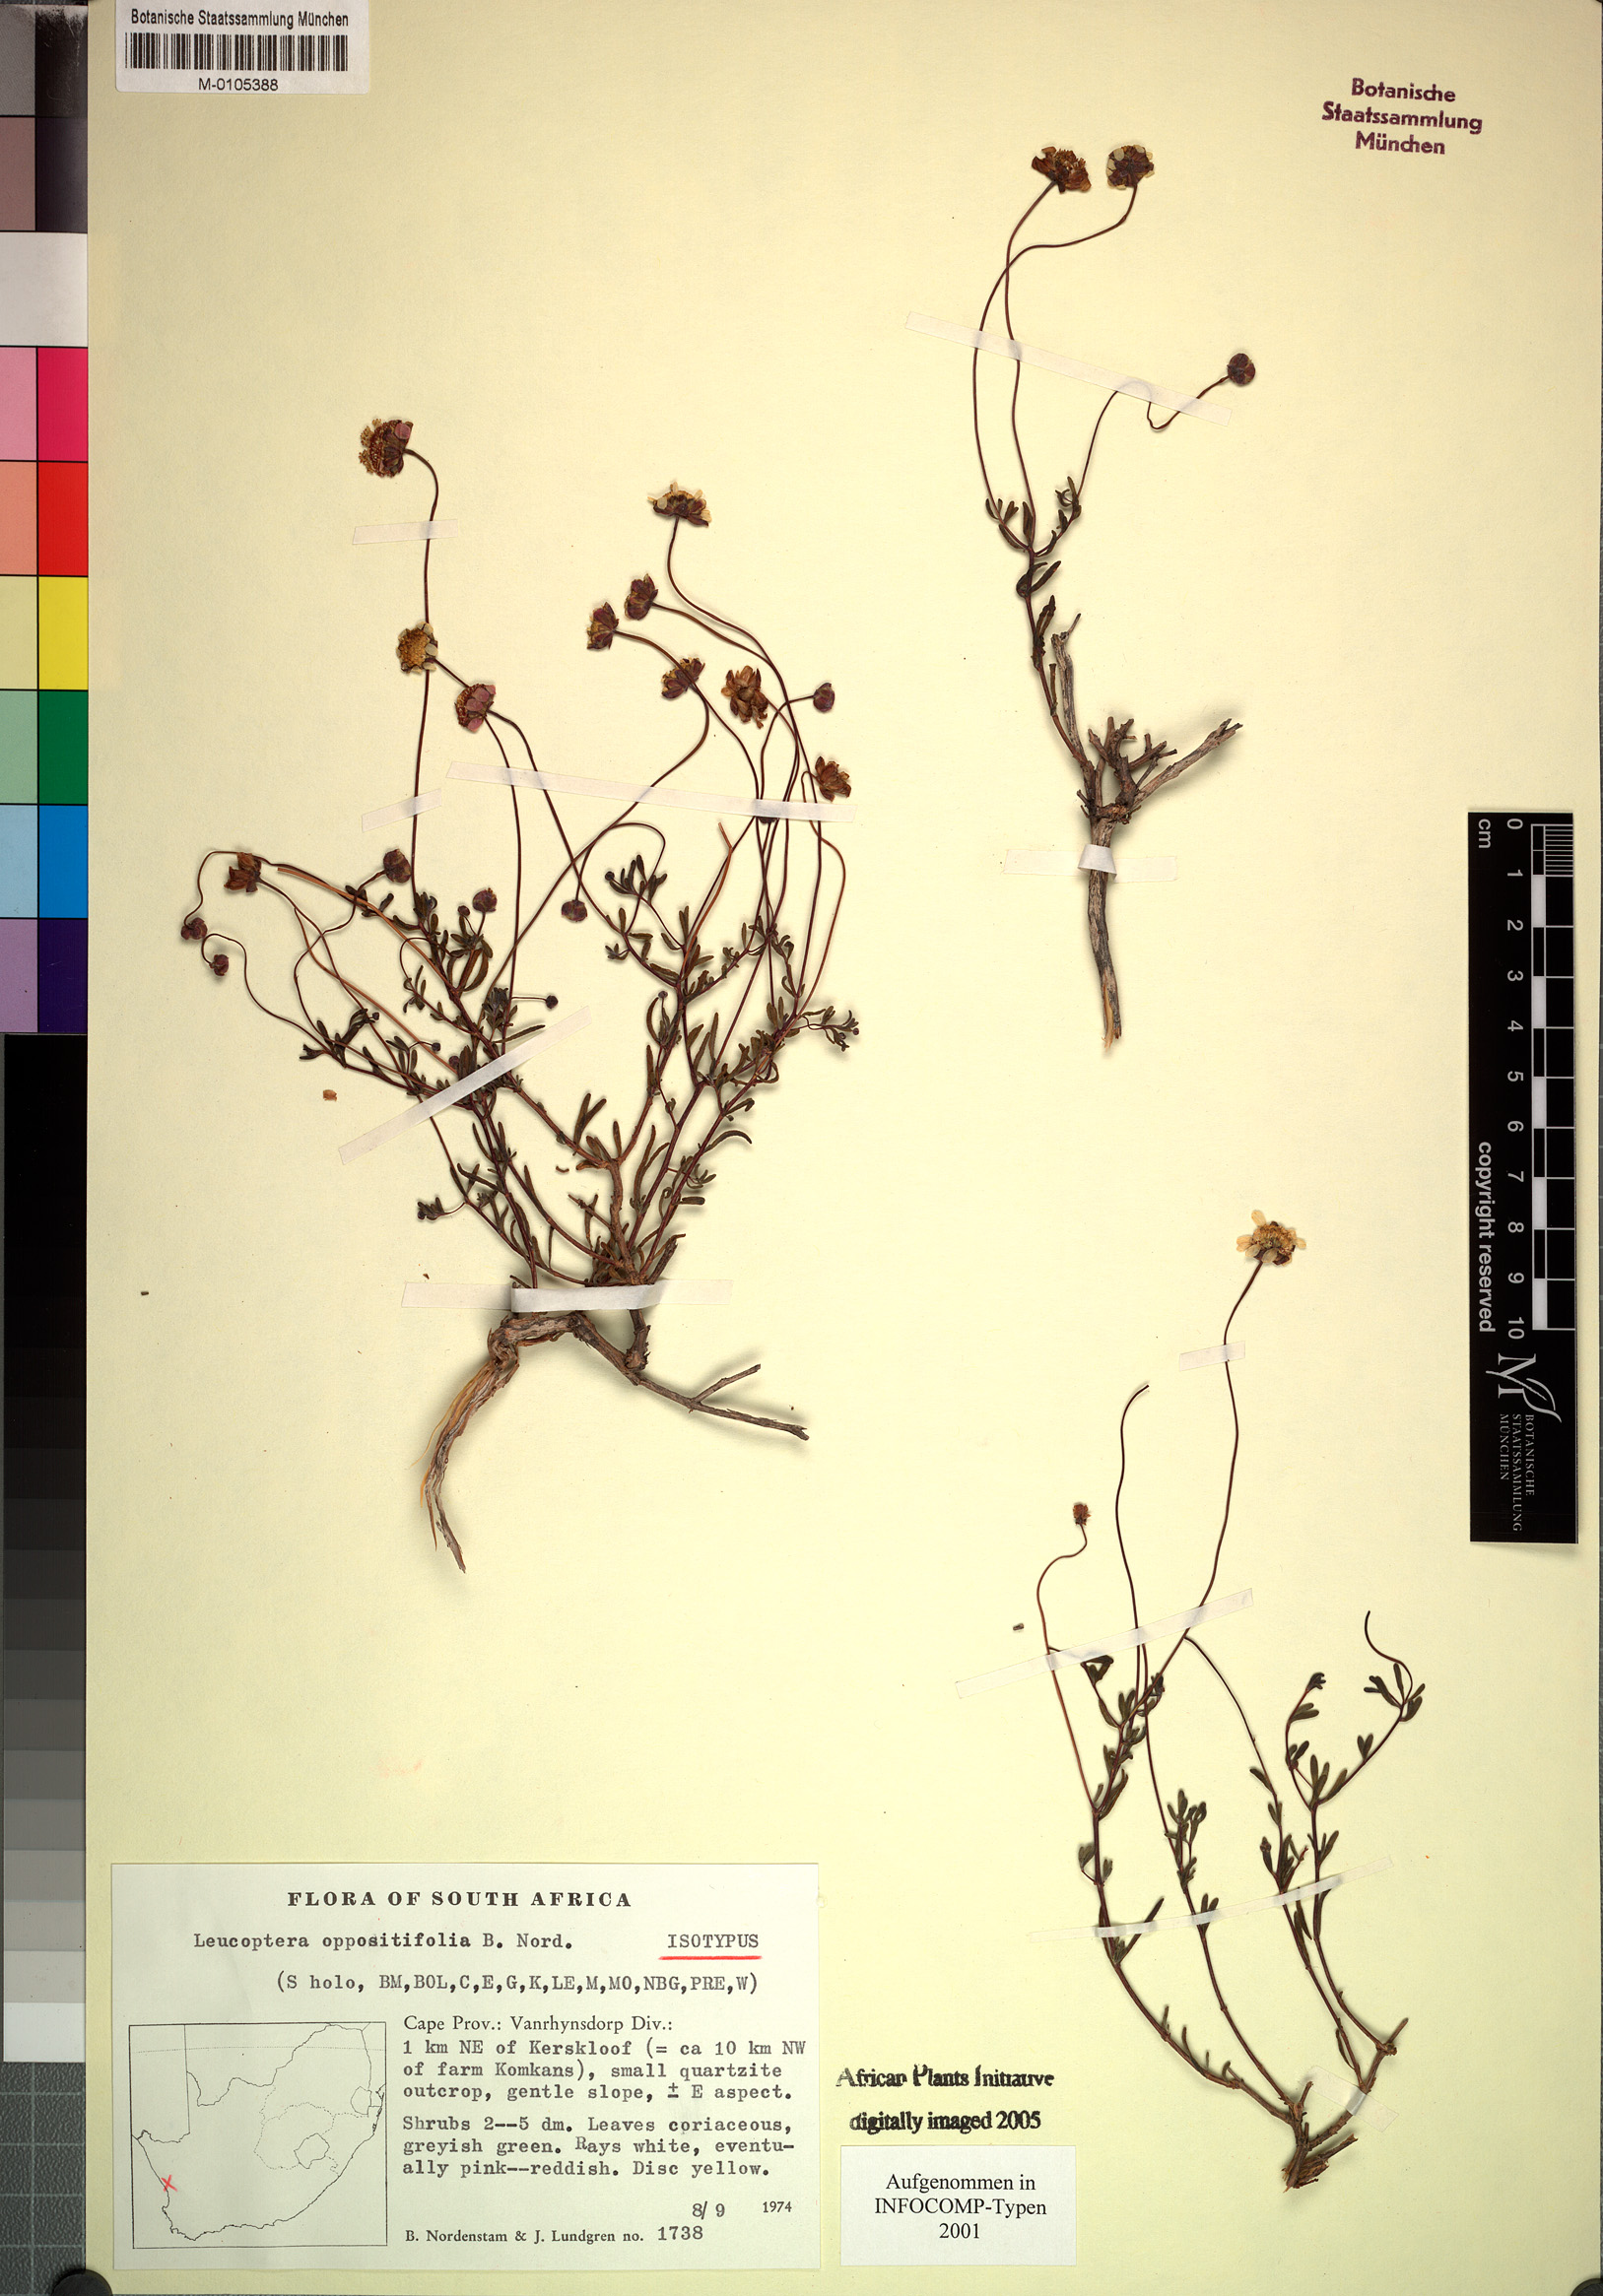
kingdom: Plantae
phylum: Tracheophyta
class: Magnoliopsida
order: Asterales
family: Asteraceae
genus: Leucoptera
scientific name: Leucoptera oppositifolia
